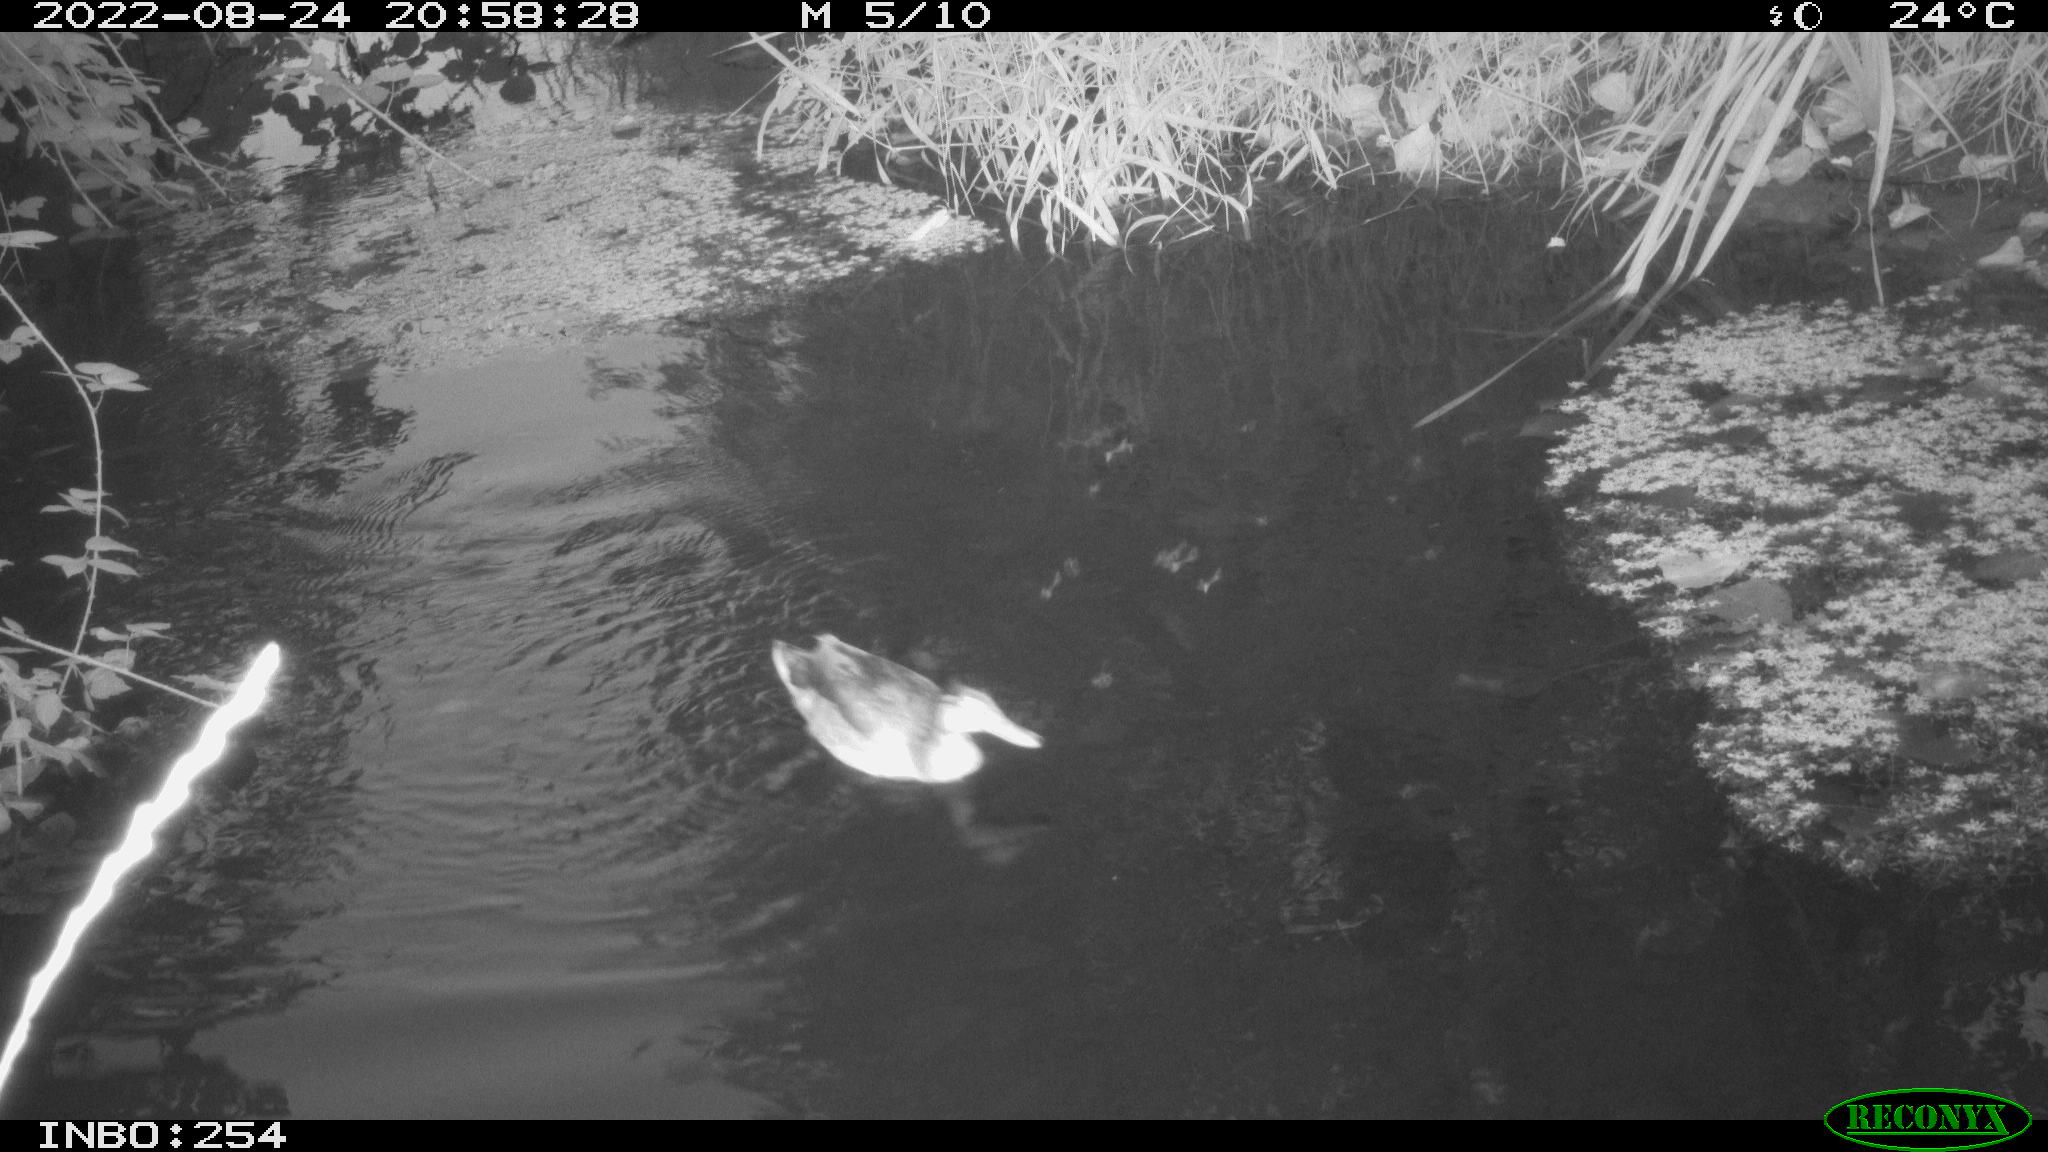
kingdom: Animalia
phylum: Chordata
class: Aves
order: Anseriformes
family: Anatidae
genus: Anas
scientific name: Anas platyrhynchos
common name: Mallard
